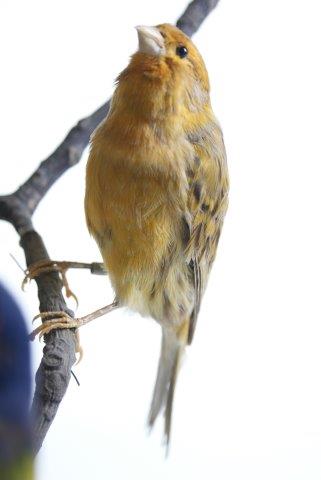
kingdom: Animalia
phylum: Chordata
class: Aves
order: Passeriformes
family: Fringillidae
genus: Serinus
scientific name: Serinus serinus
